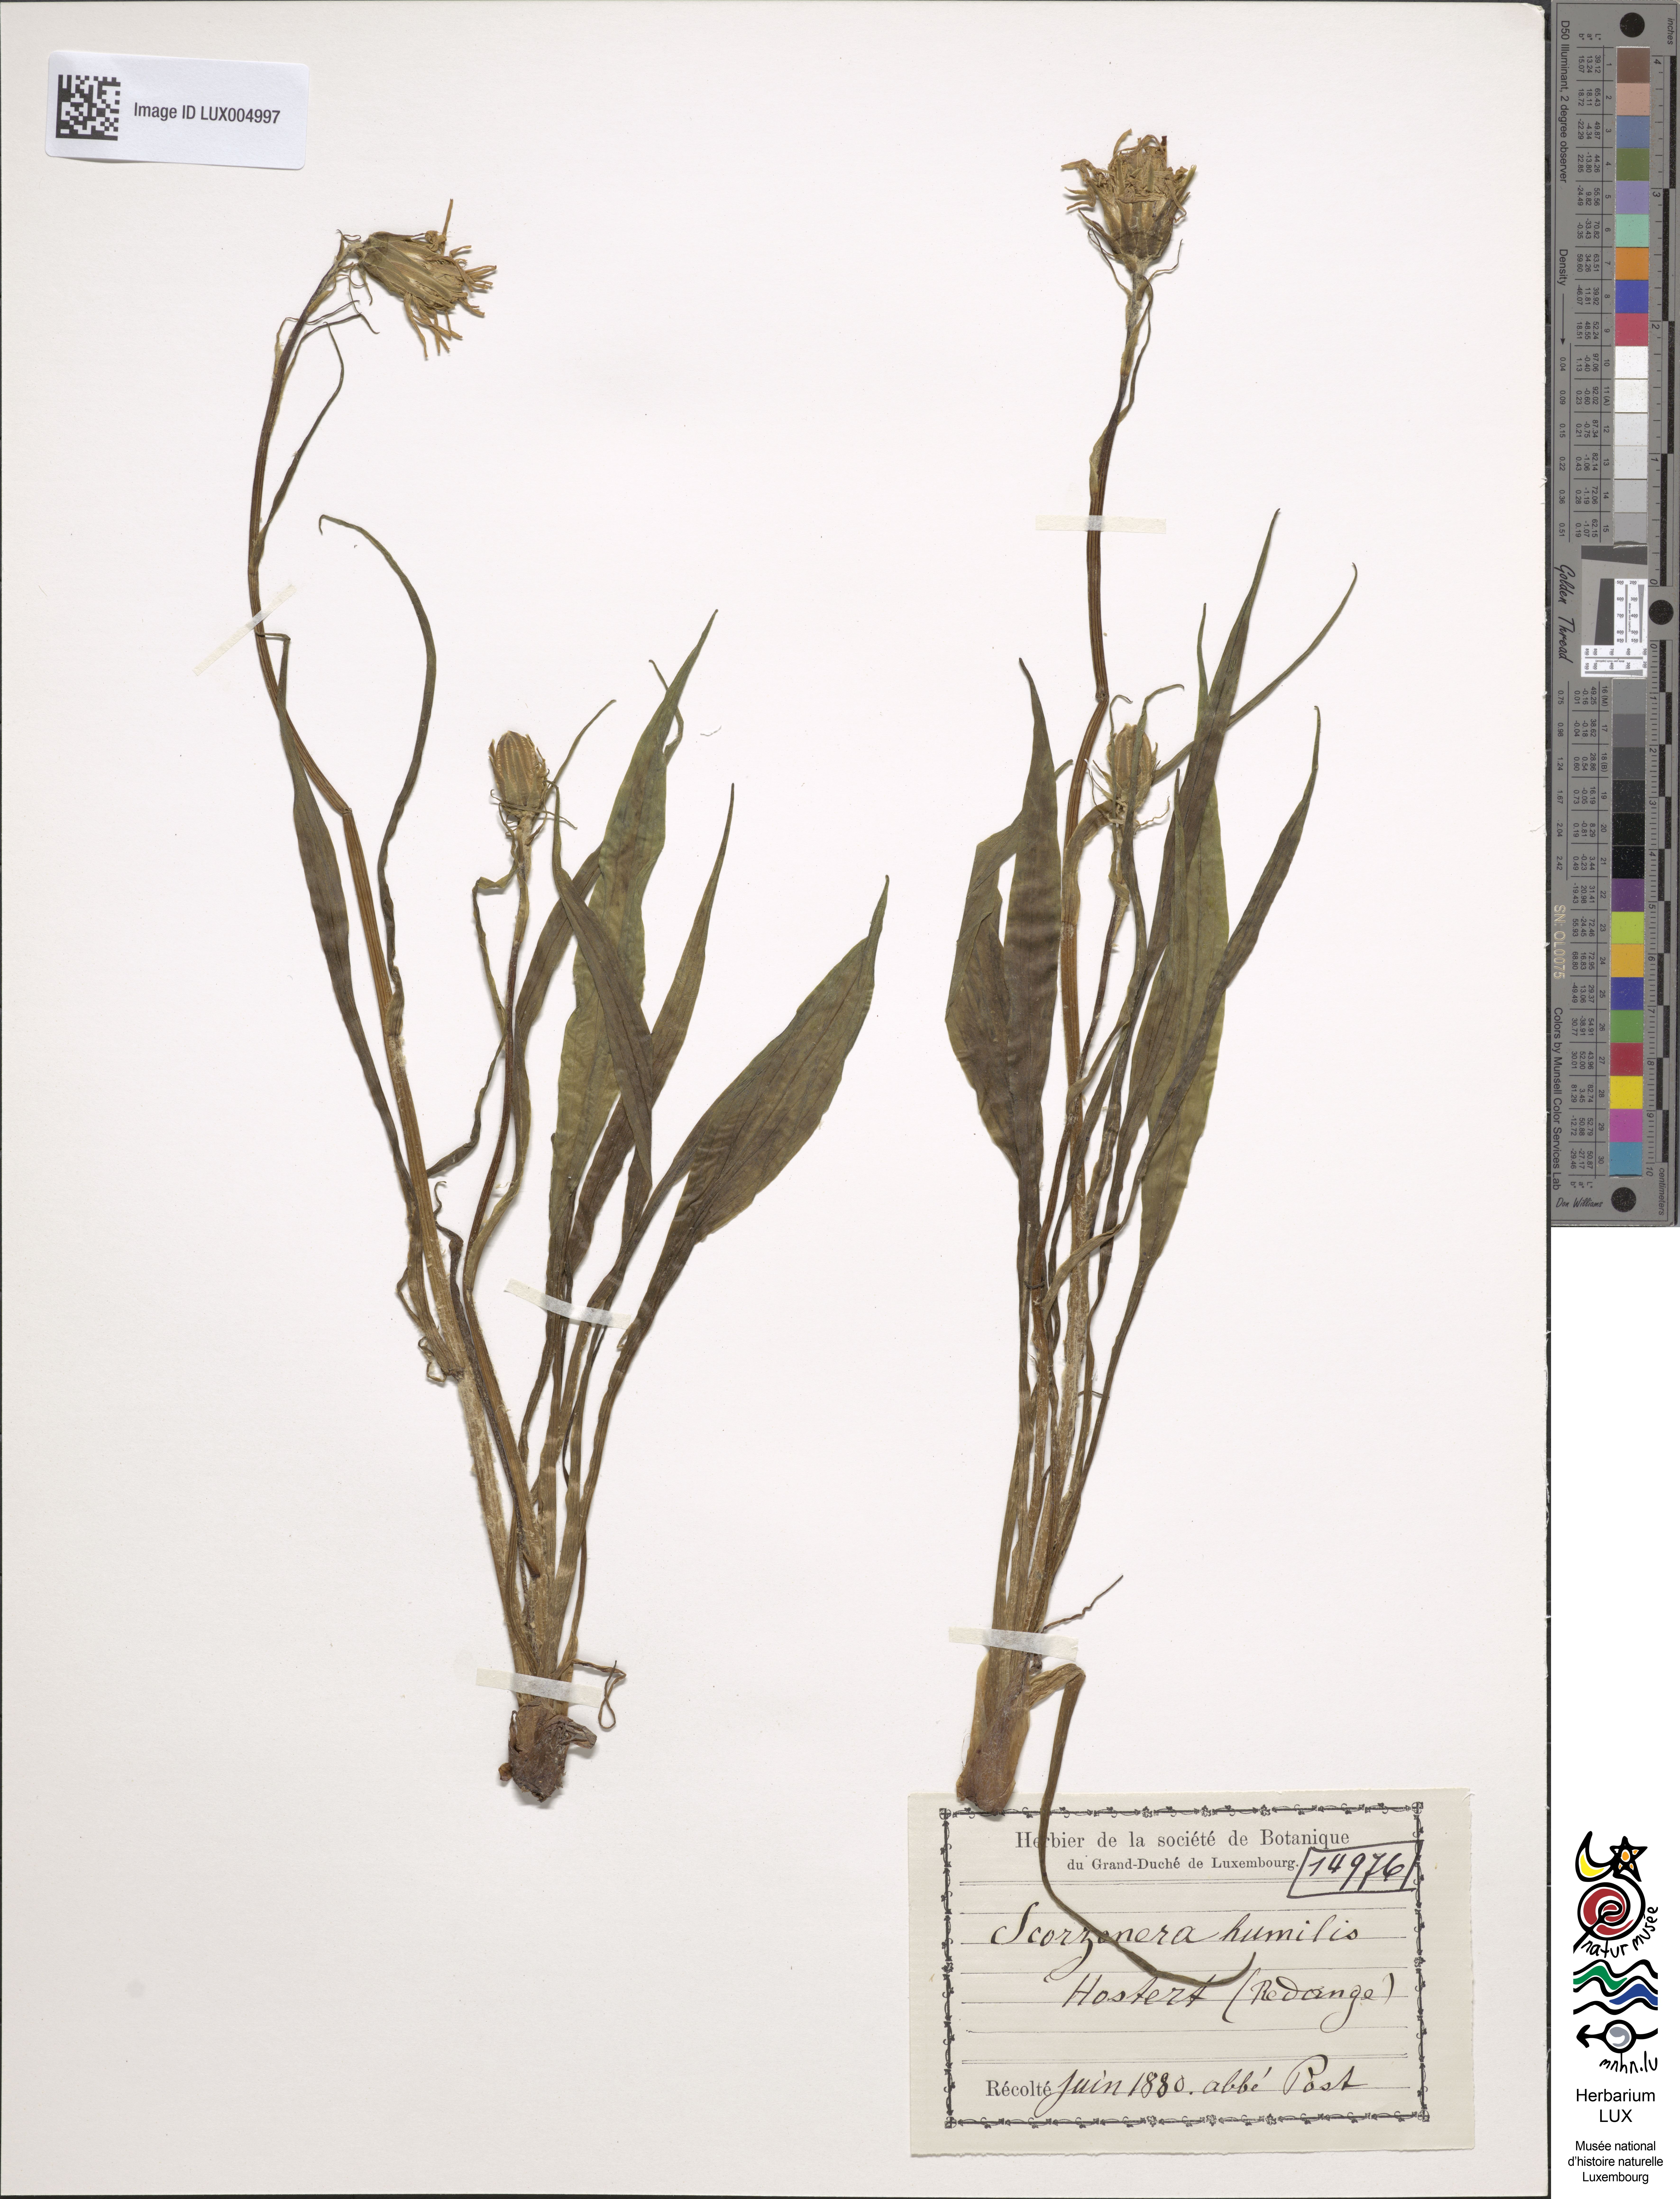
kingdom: Plantae
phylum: Tracheophyta
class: Magnoliopsida
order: Asterales
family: Asteraceae
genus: Scorzonera
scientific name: Scorzonera humilis
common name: Viper's-grass
